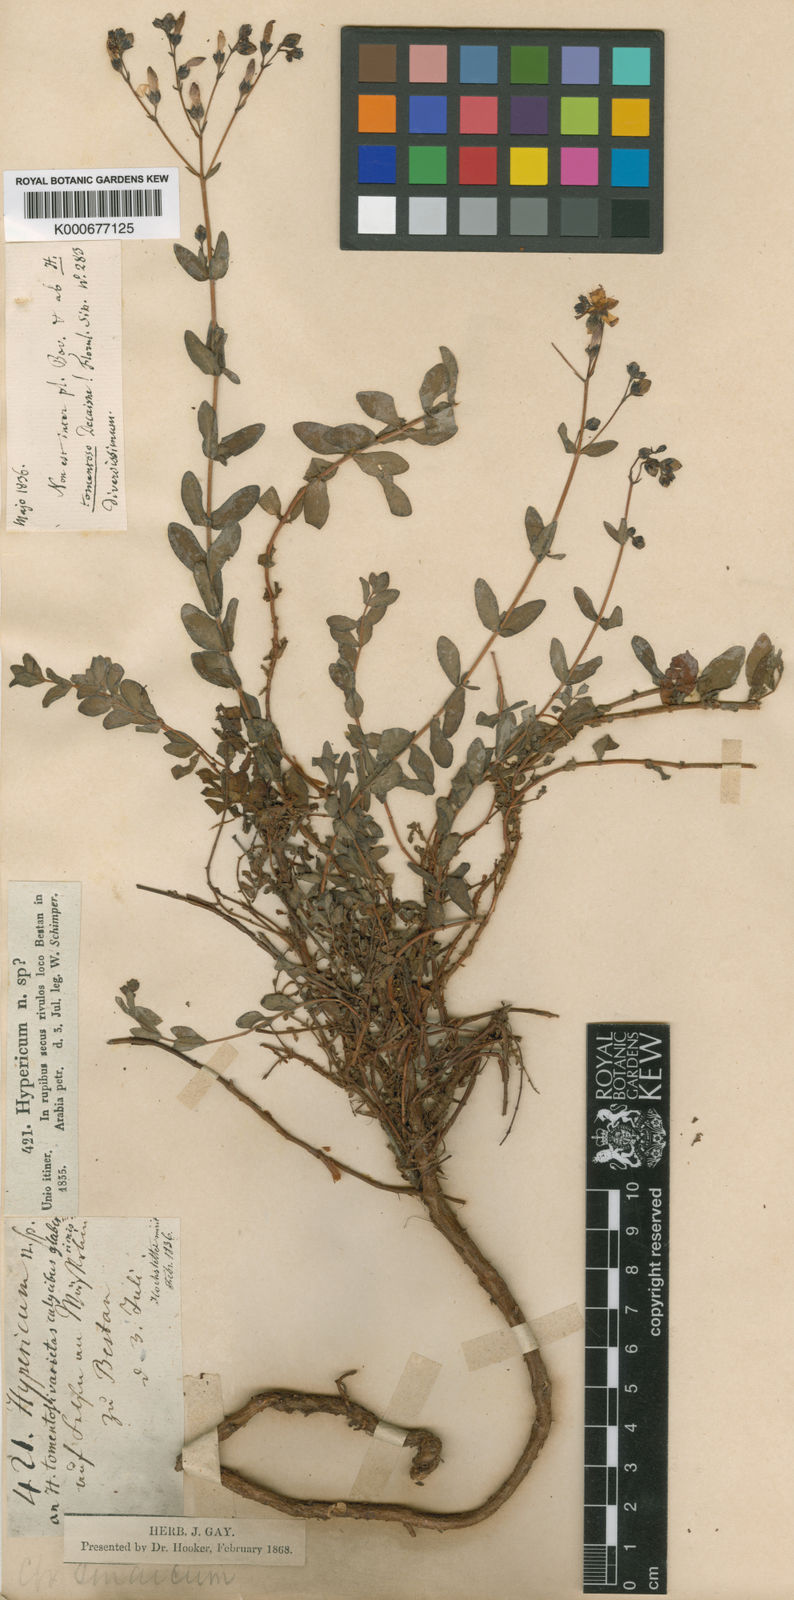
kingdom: Plantae
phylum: Tracheophyta
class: Magnoliopsida
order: Malpighiales
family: Hypericaceae
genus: Hypericum
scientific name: Hypericum sinaicum
